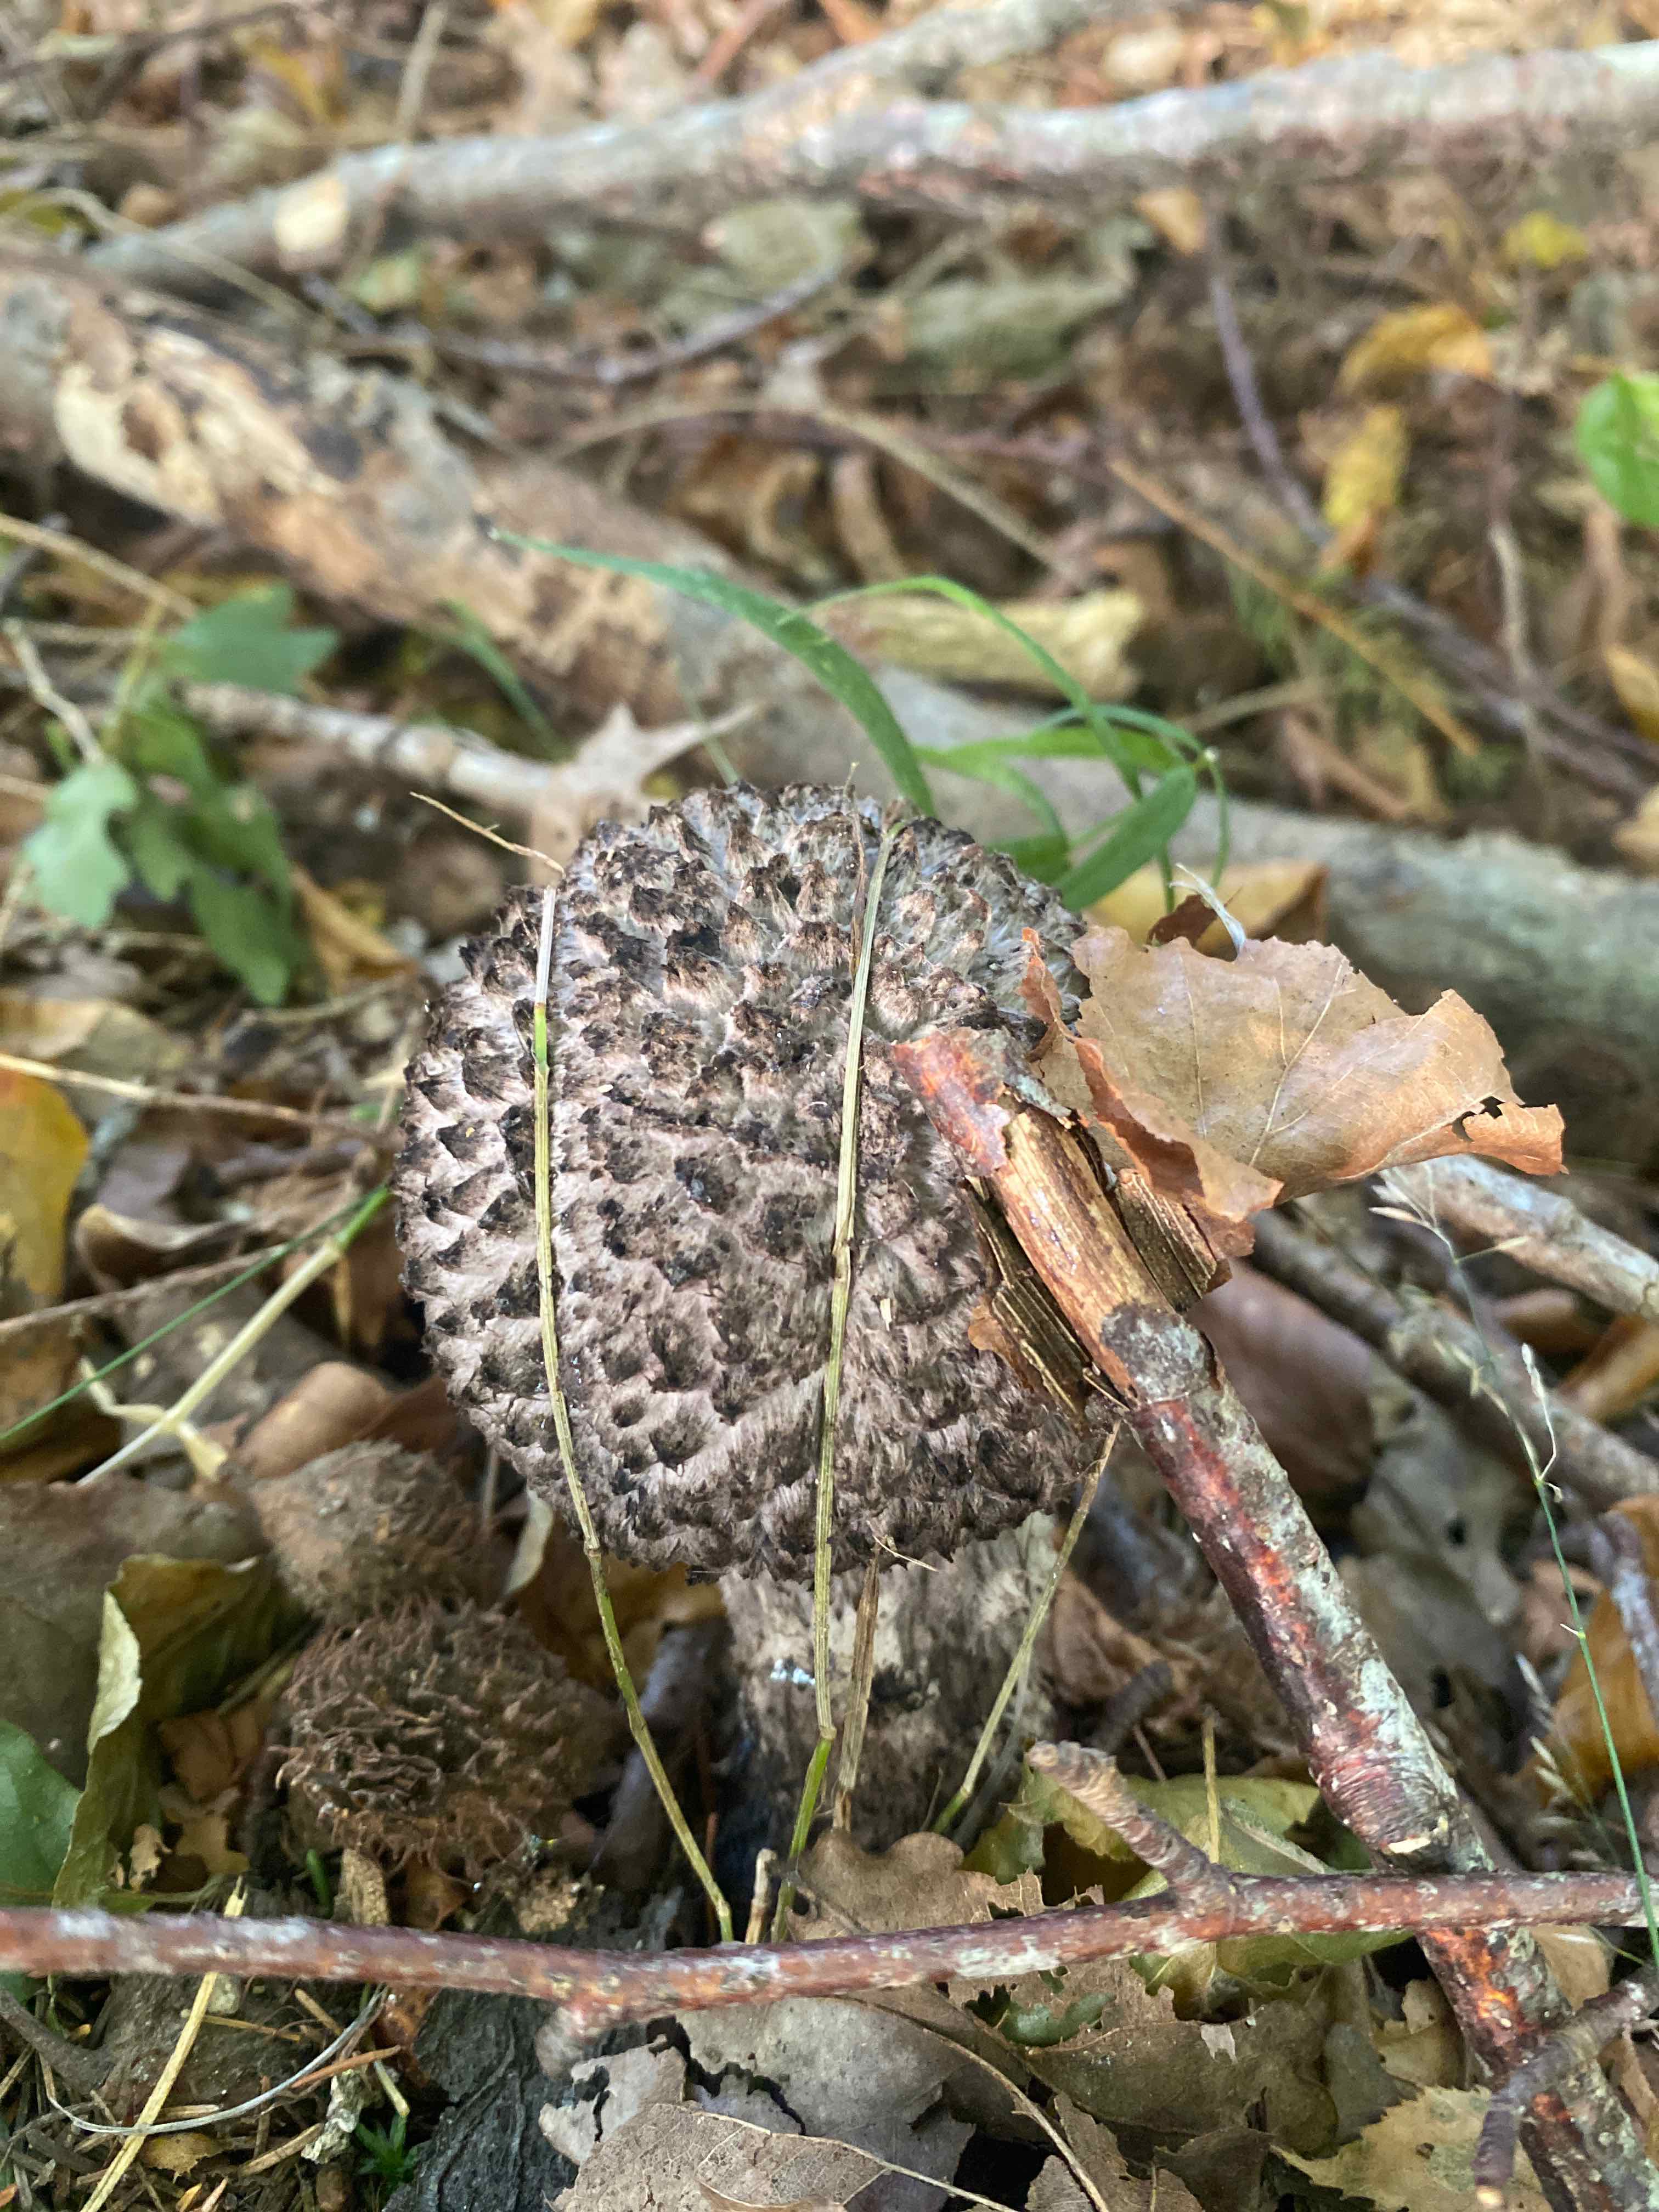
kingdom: Fungi
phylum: Basidiomycota
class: Agaricomycetes
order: Boletales
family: Boletaceae
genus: Strobilomyces
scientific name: Strobilomyces strobilaceus
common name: koglerørhat
